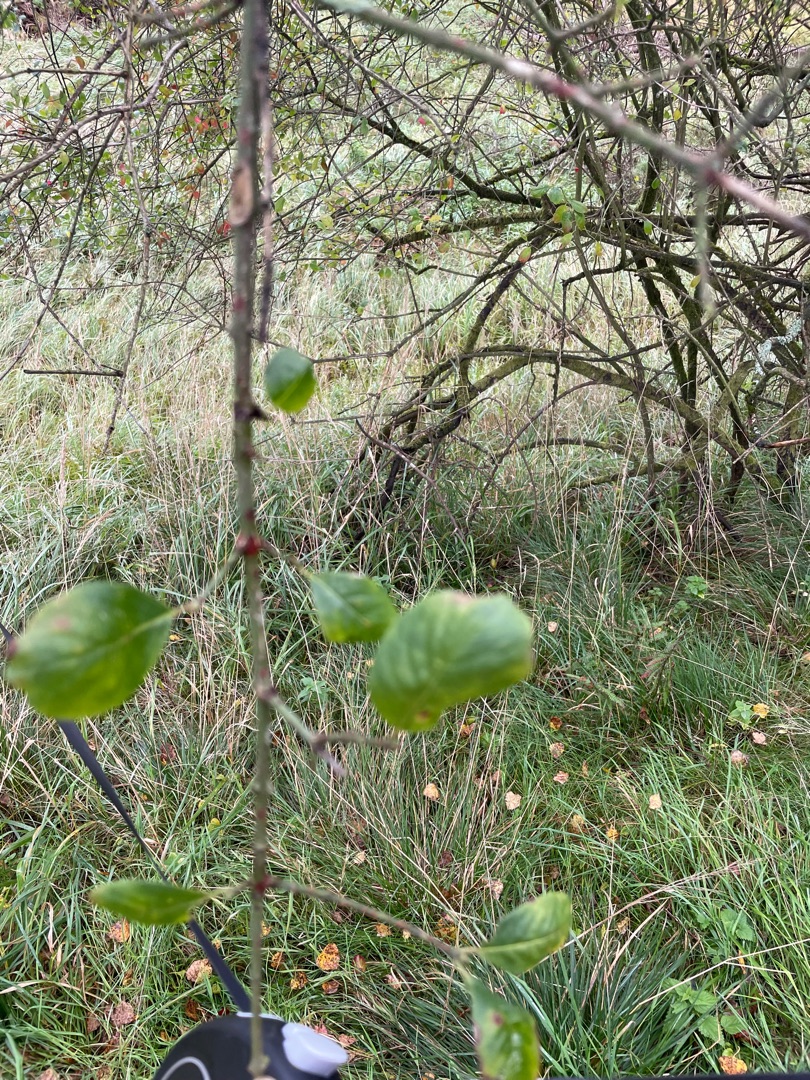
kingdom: Plantae
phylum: Tracheophyta
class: Magnoliopsida
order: Celastrales
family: Celastraceae
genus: Euonymus
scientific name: Euonymus europaeus
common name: Benved
